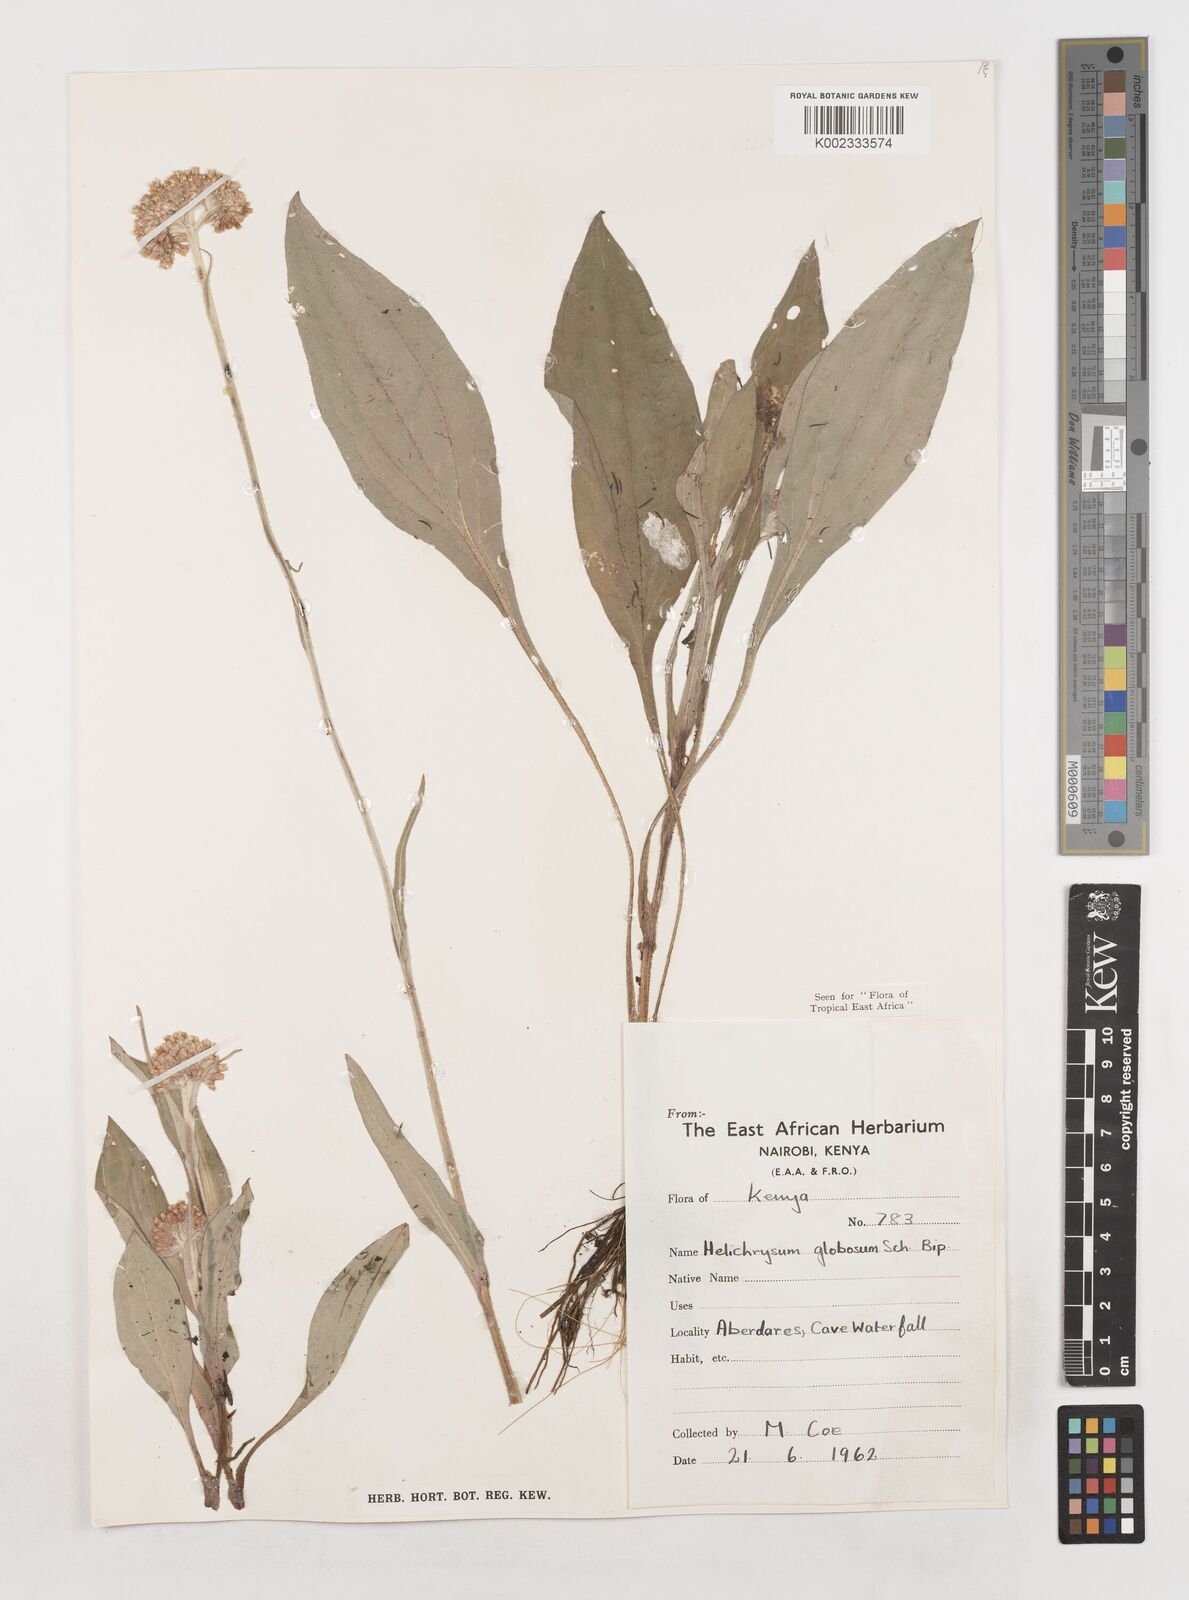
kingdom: Plantae
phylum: Tracheophyta
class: Magnoliopsida
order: Asterales
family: Asteraceae
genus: Helichrysum
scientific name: Helichrysum globosum
